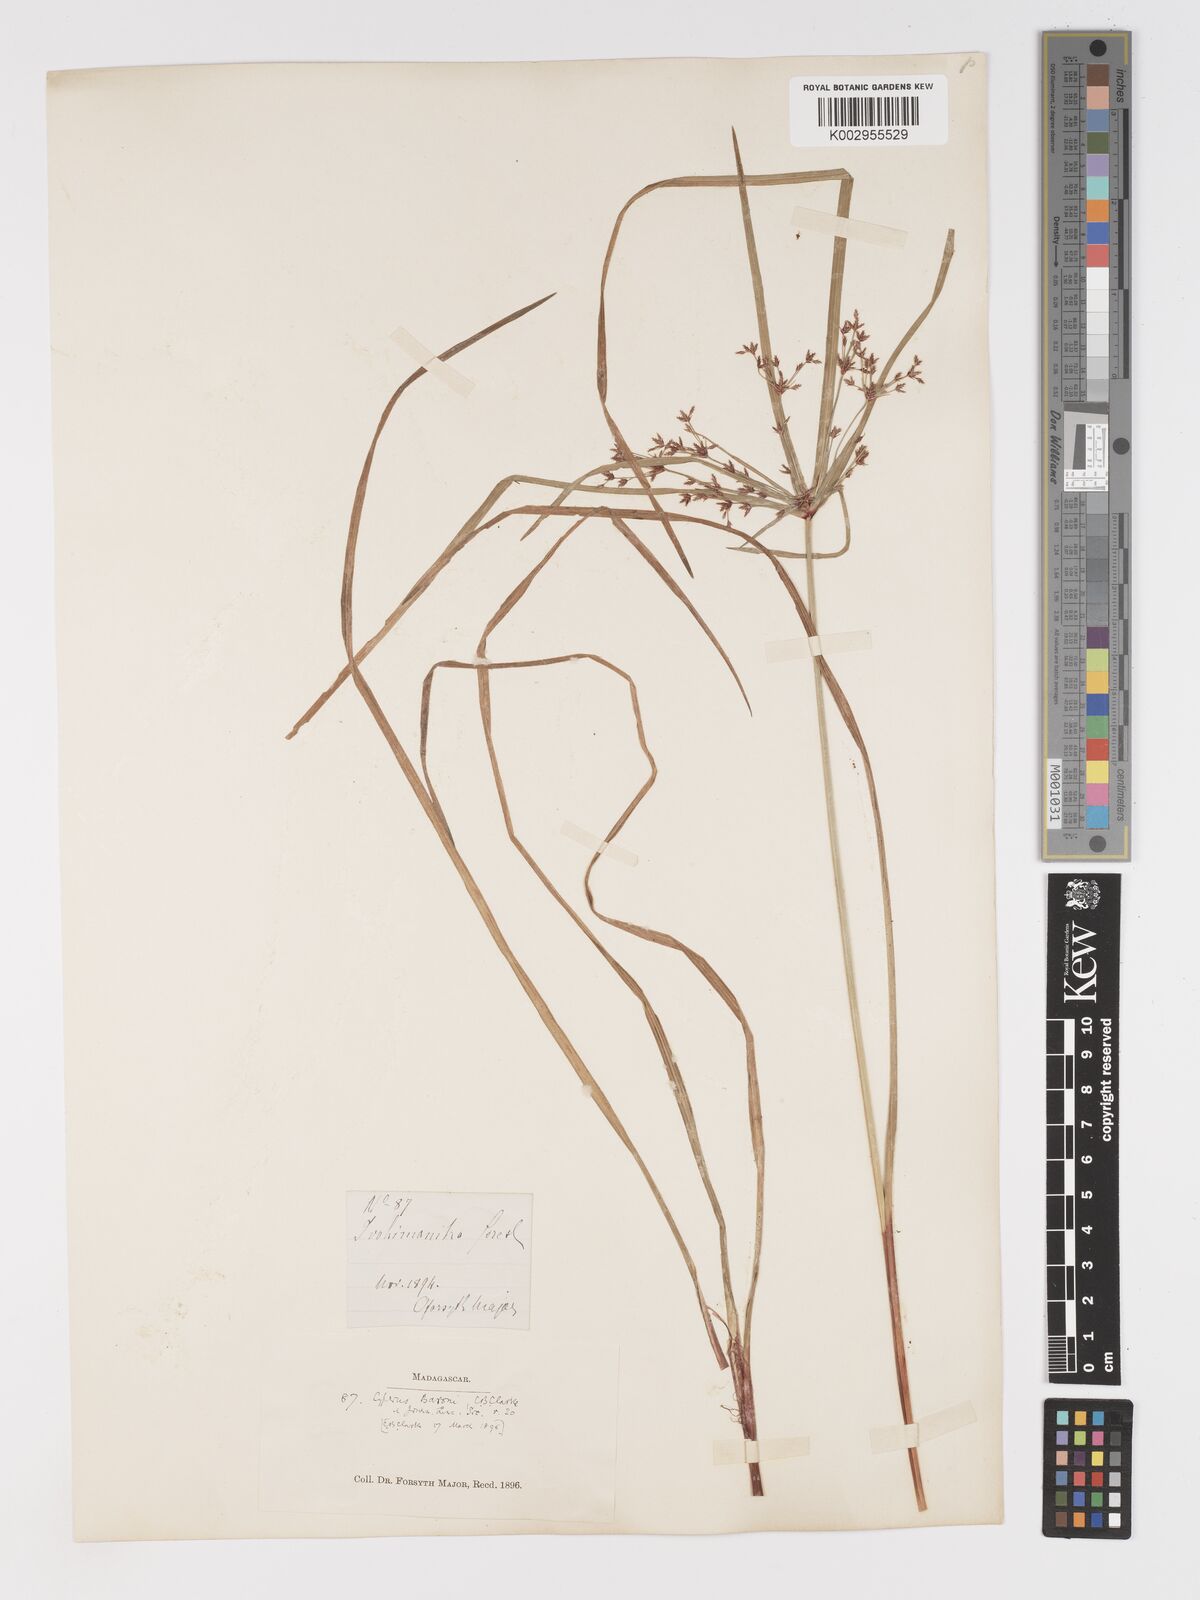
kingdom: Plantae
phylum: Tracheophyta
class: Liliopsida
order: Poales
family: Cyperaceae
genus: Cyperus
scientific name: Cyperus baronii
